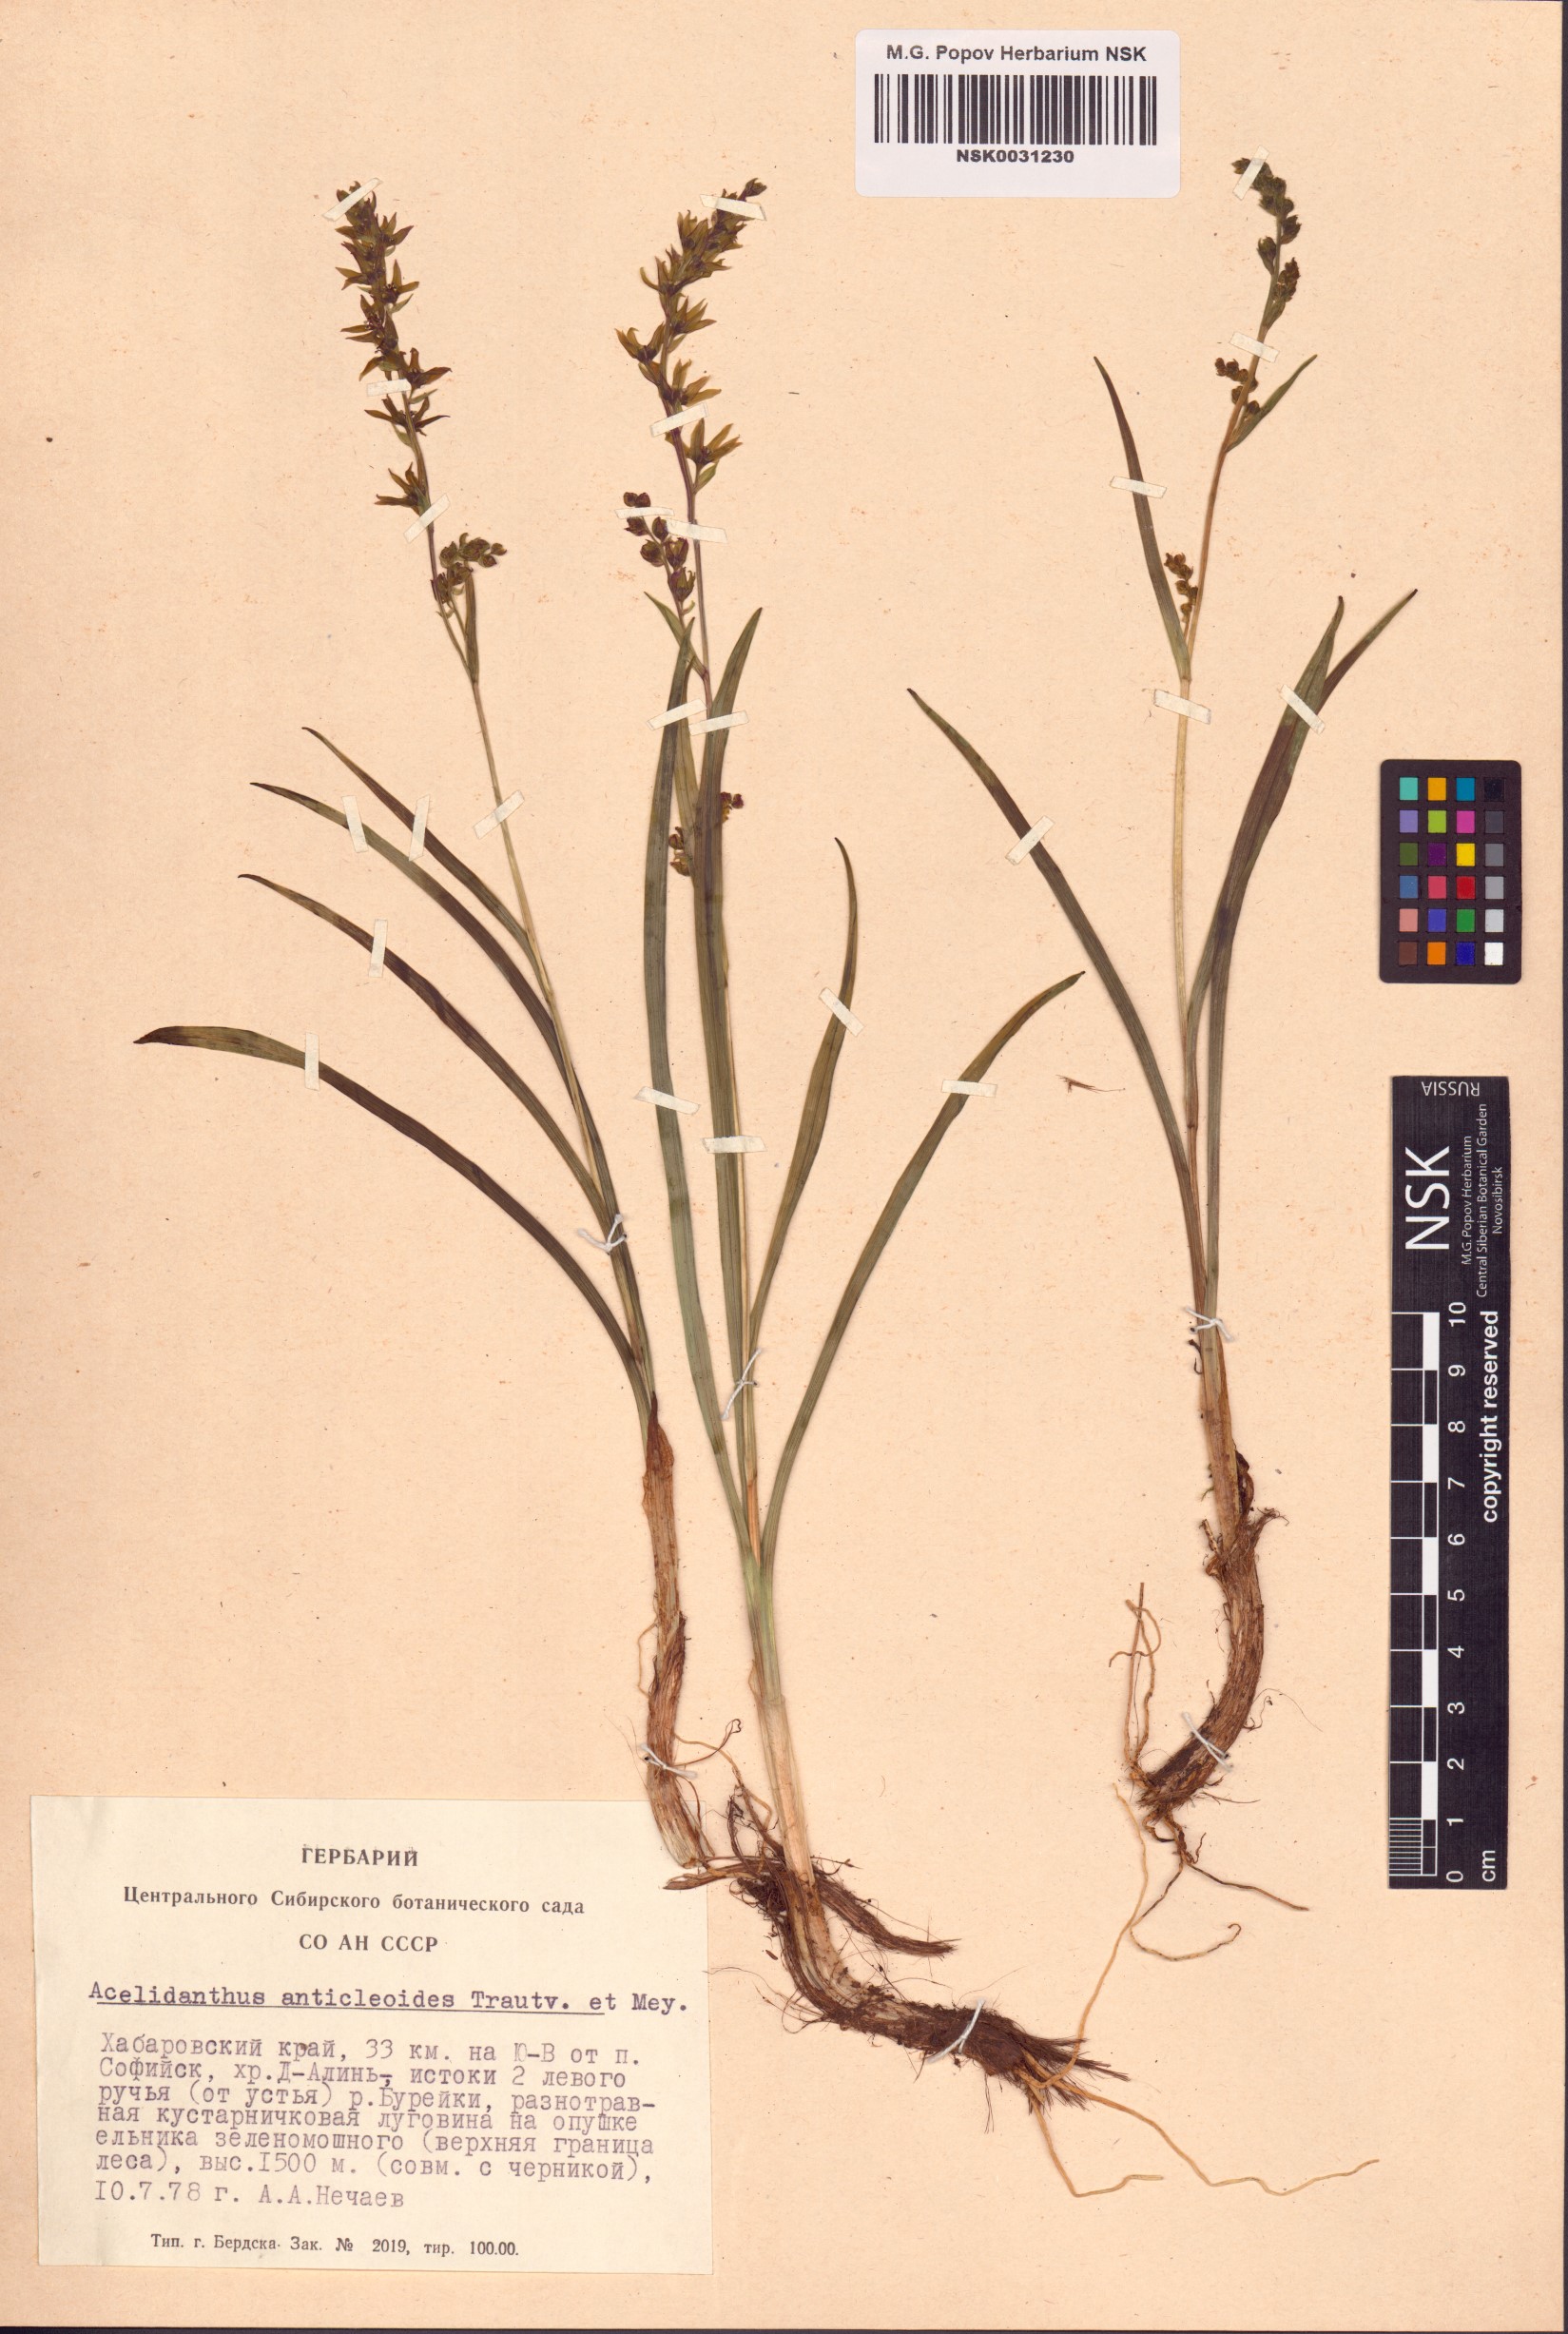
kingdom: Plantae
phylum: Tracheophyta
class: Liliopsida
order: Liliales
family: Melanthiaceae
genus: Veratrum
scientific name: Veratrum anticleoides
